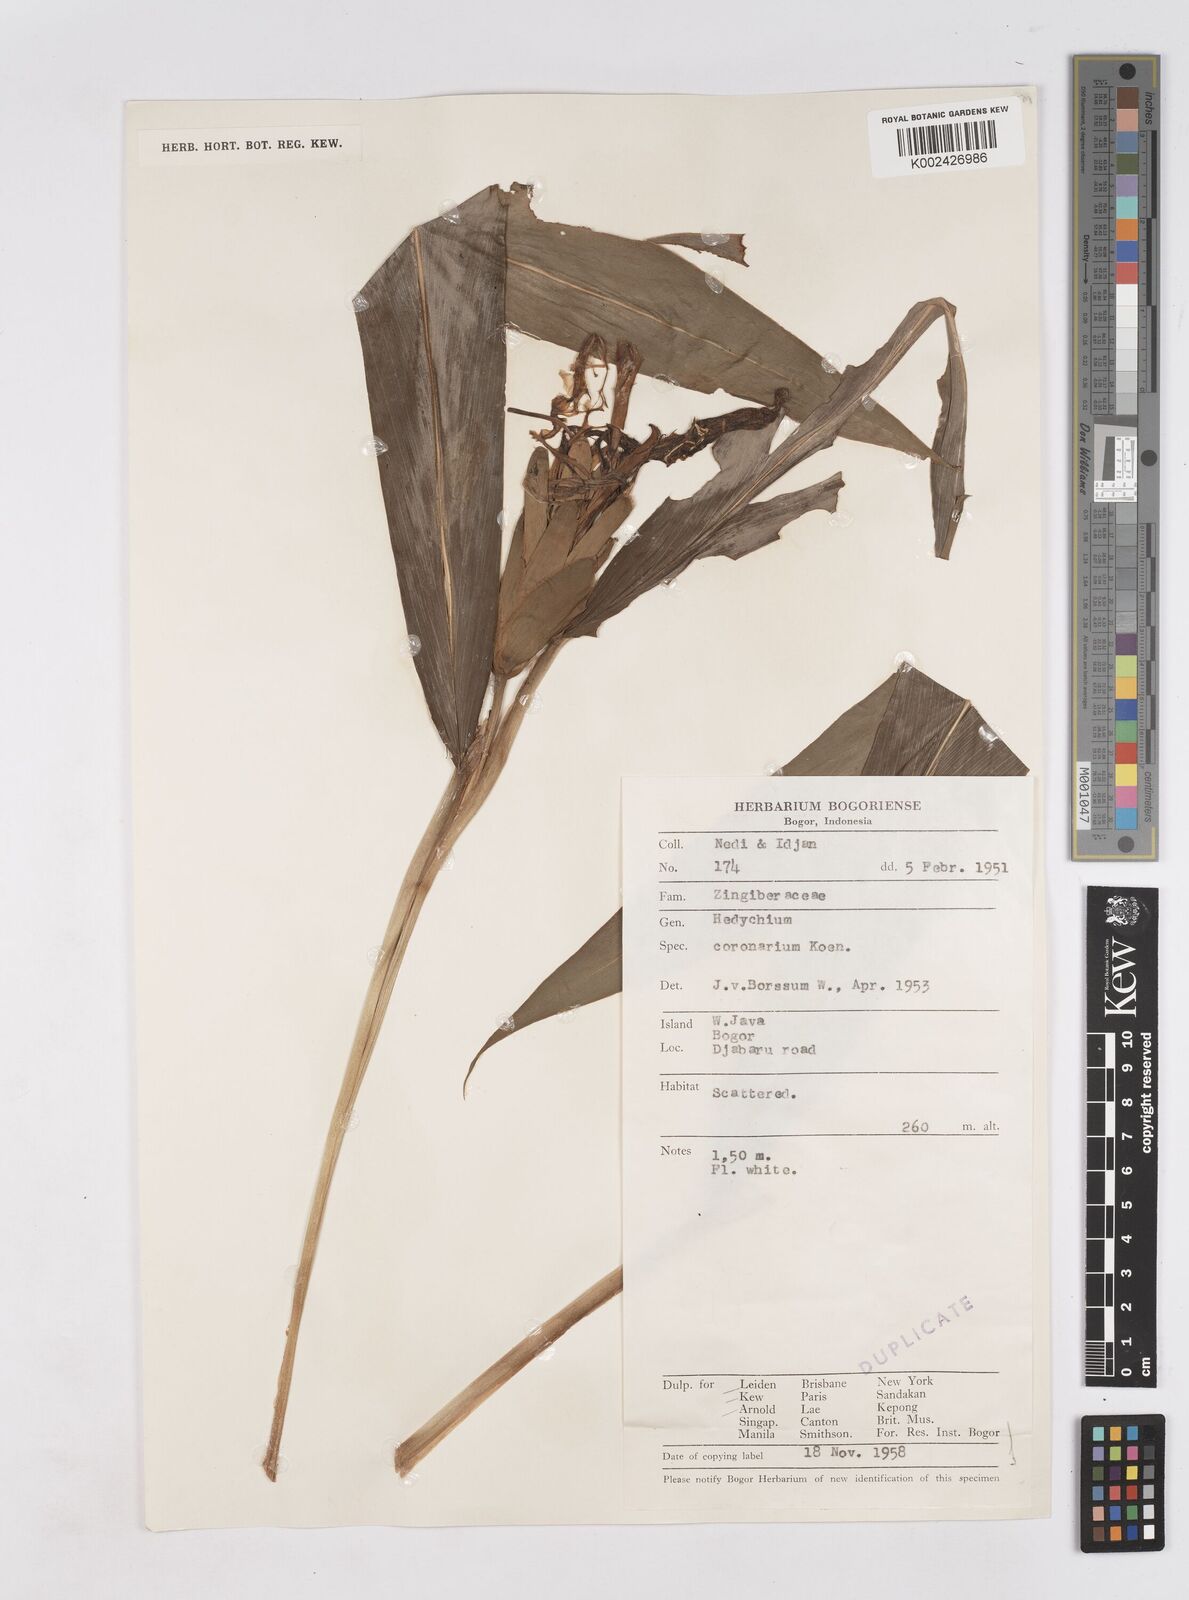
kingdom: Plantae
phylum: Tracheophyta
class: Liliopsida
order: Zingiberales
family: Zingiberaceae
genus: Hedychium
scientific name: Hedychium coronarium
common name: White garland-lily
